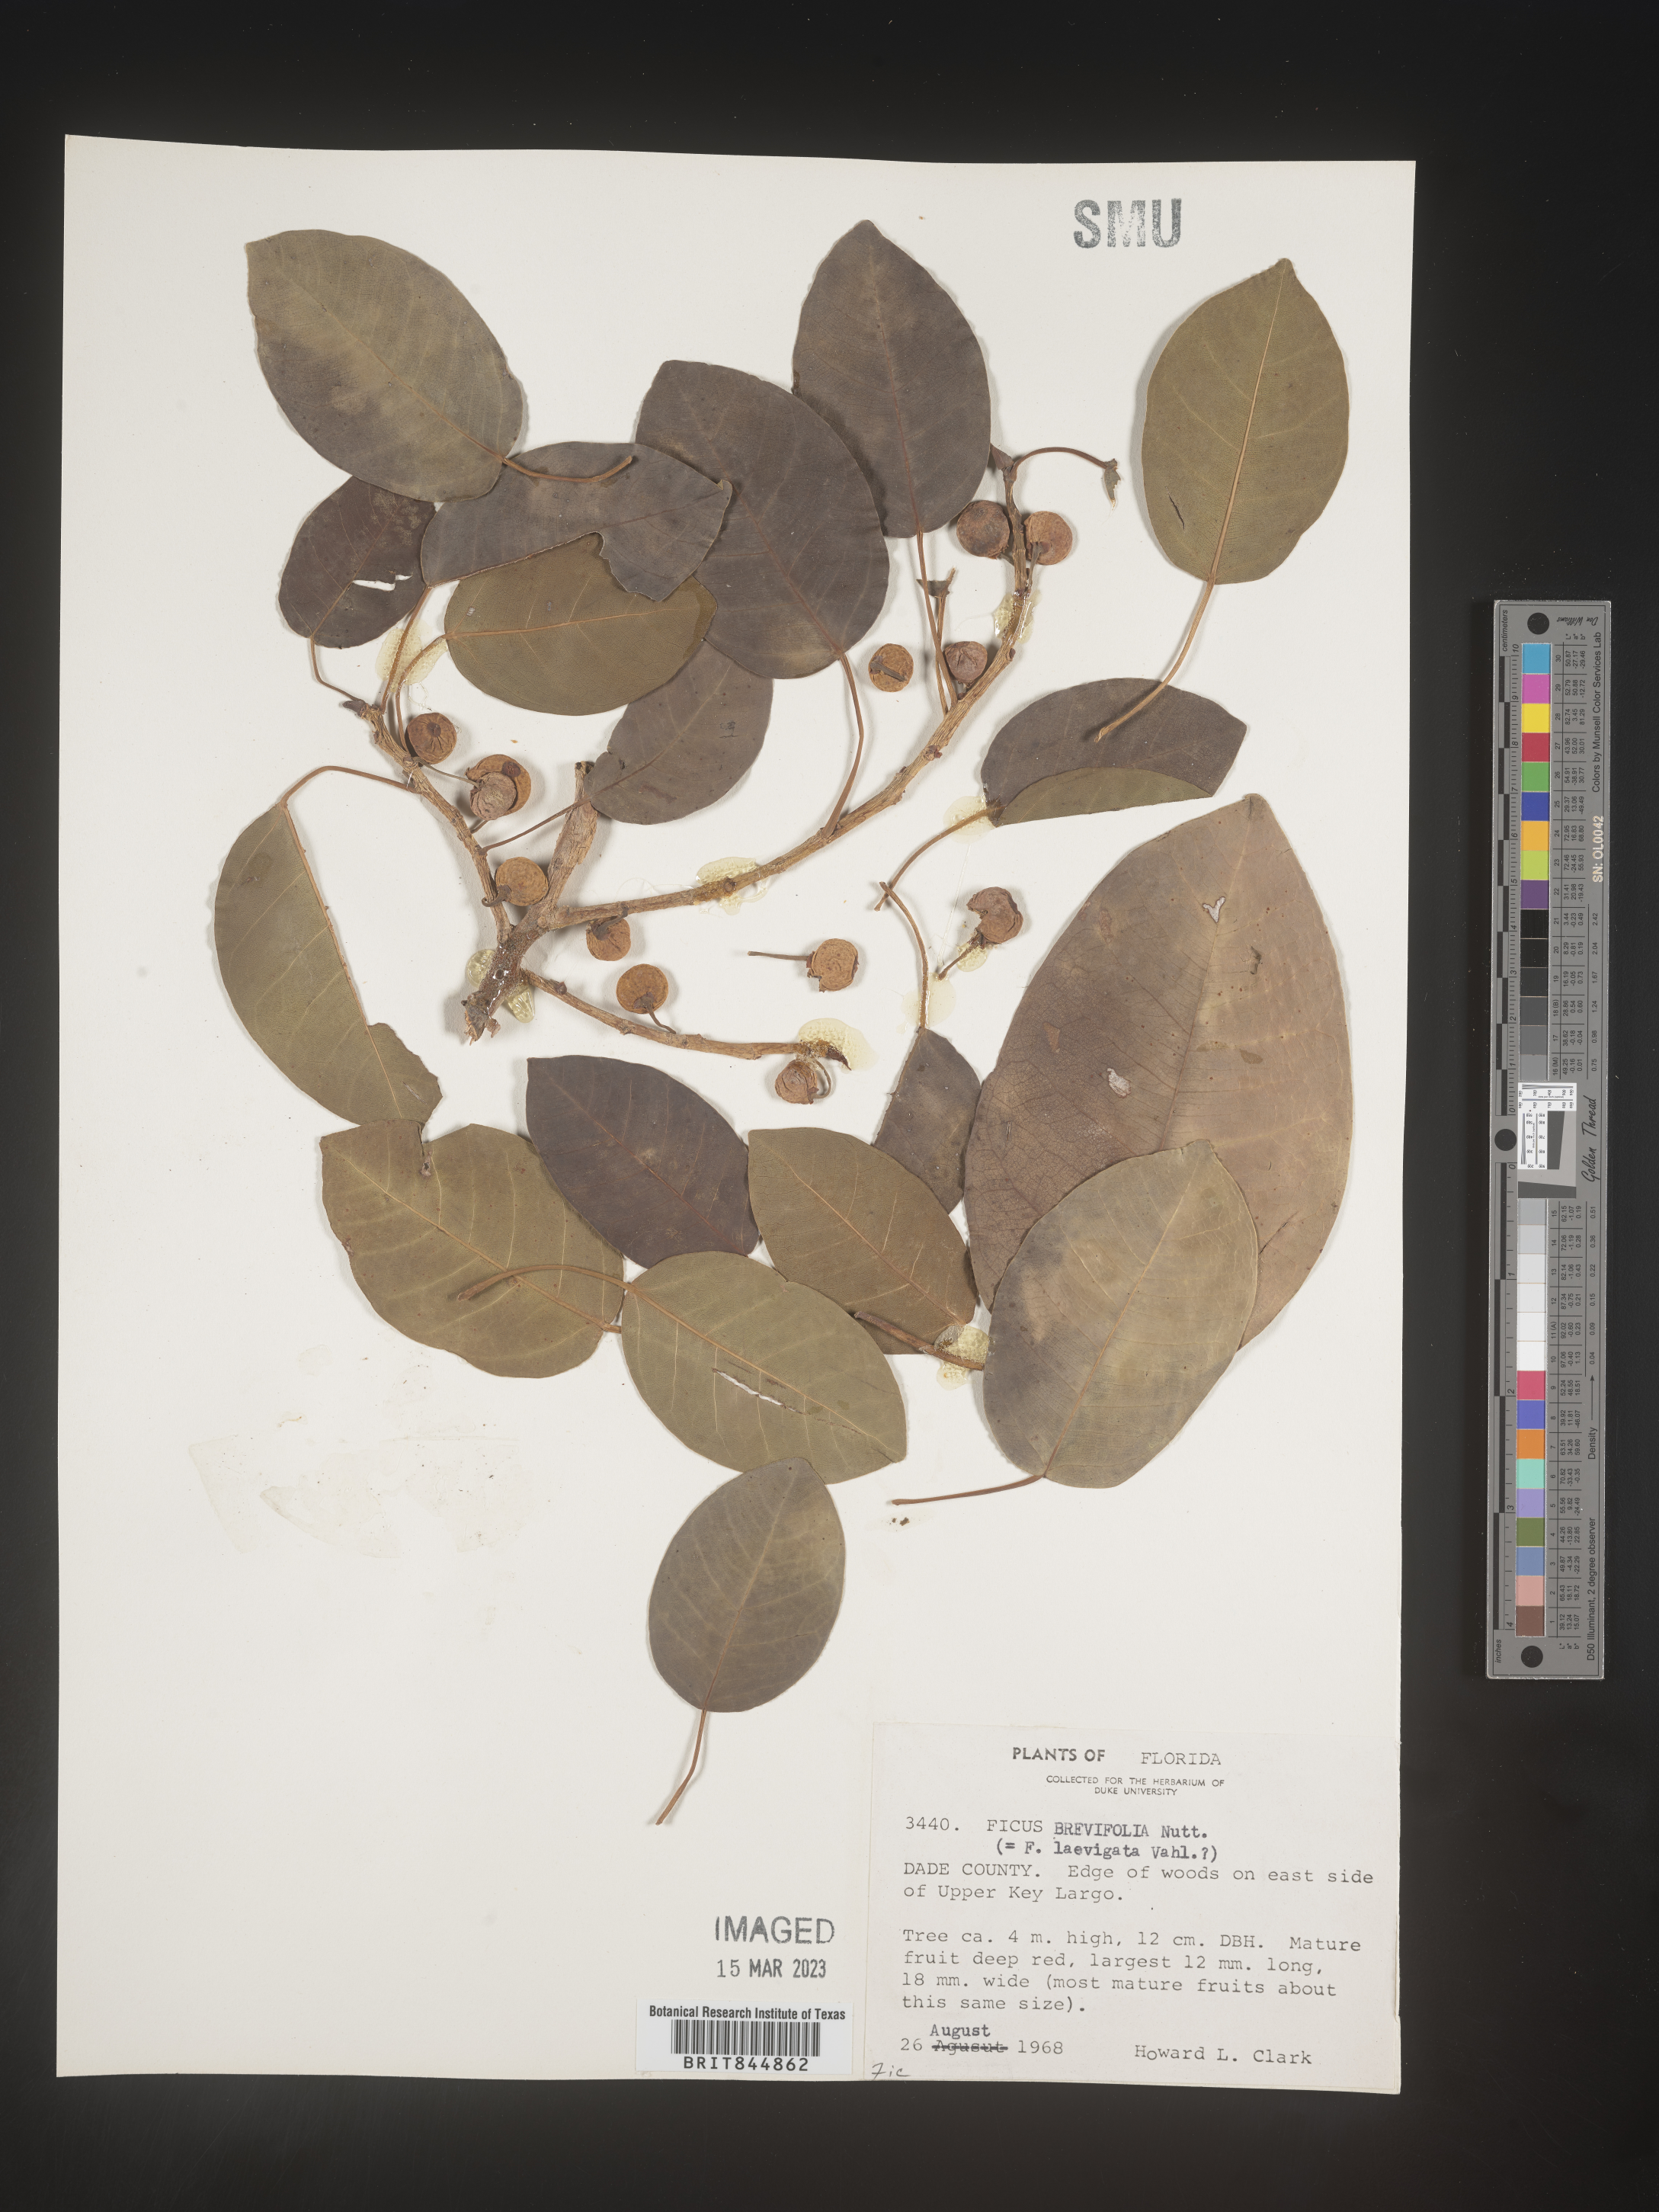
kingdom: Plantae
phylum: Tracheophyta
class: Magnoliopsida
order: Rosales
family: Moraceae
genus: Ficus
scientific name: Ficus
